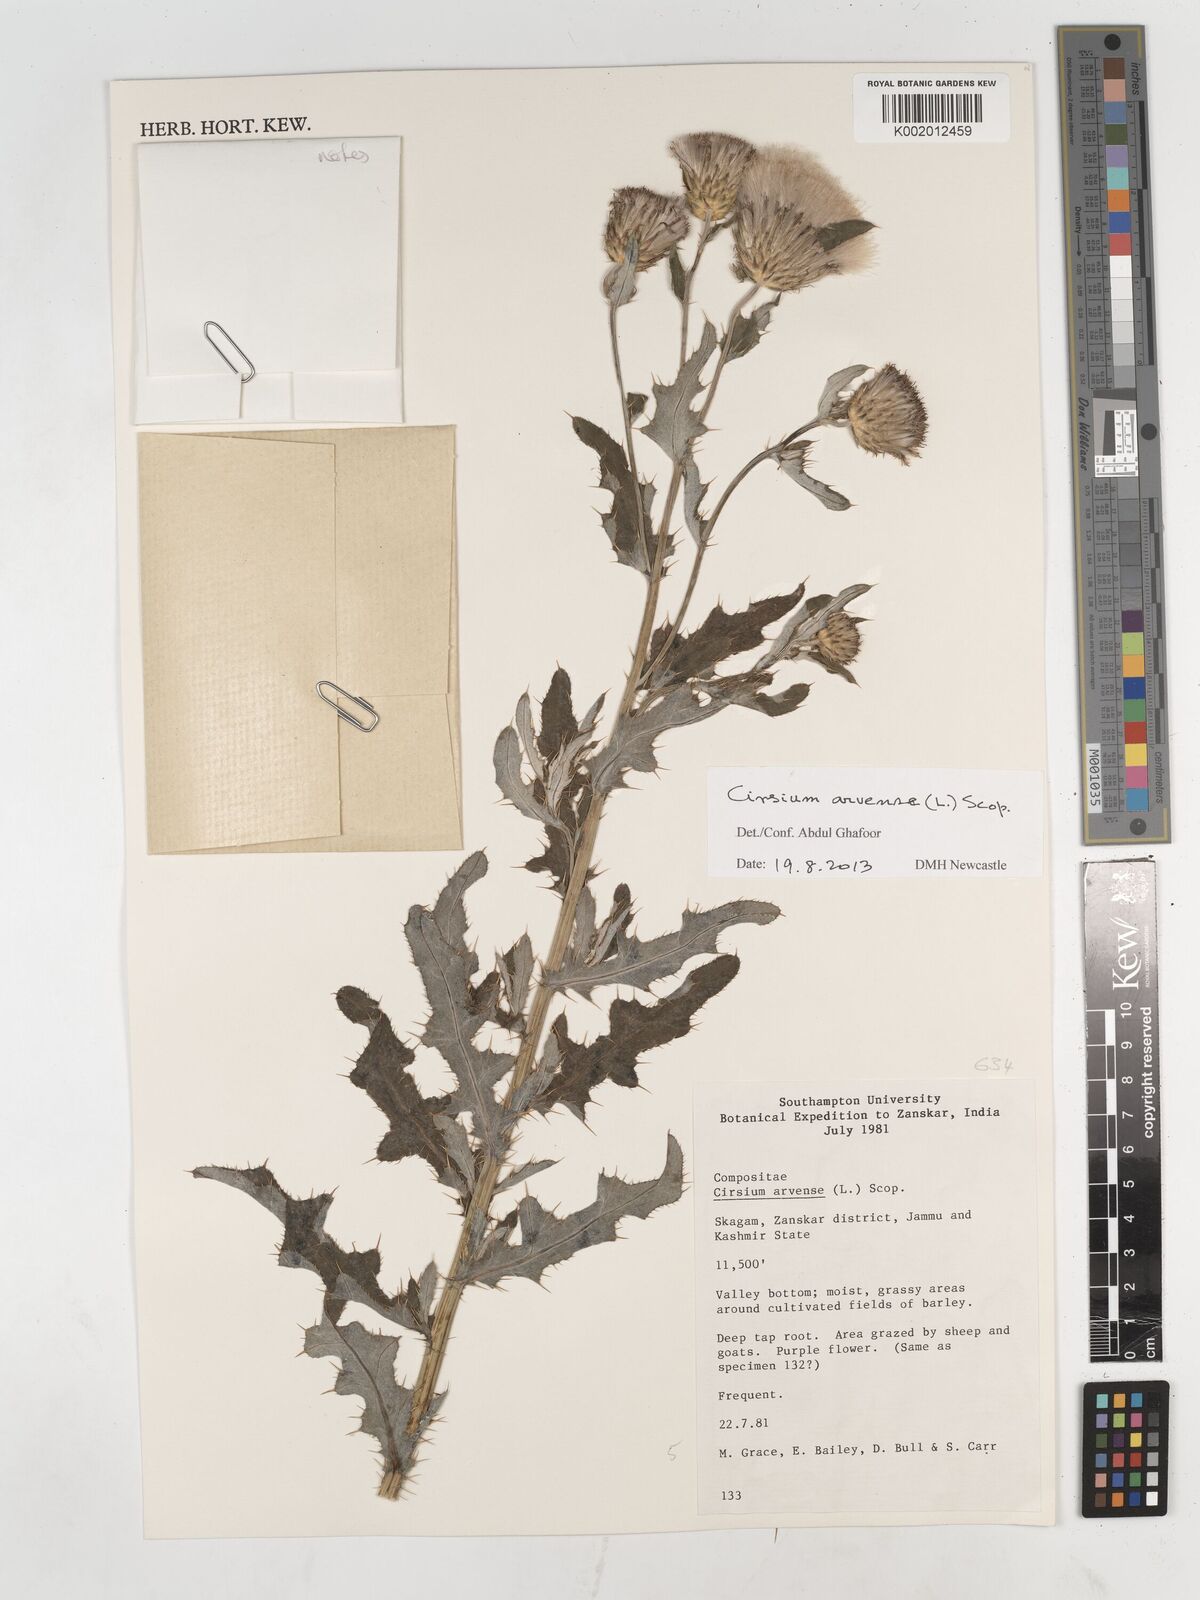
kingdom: Plantae
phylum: Tracheophyta
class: Magnoliopsida
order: Asterales
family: Asteraceae
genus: Cirsium
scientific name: Cirsium arvense
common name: Creeping thistle
